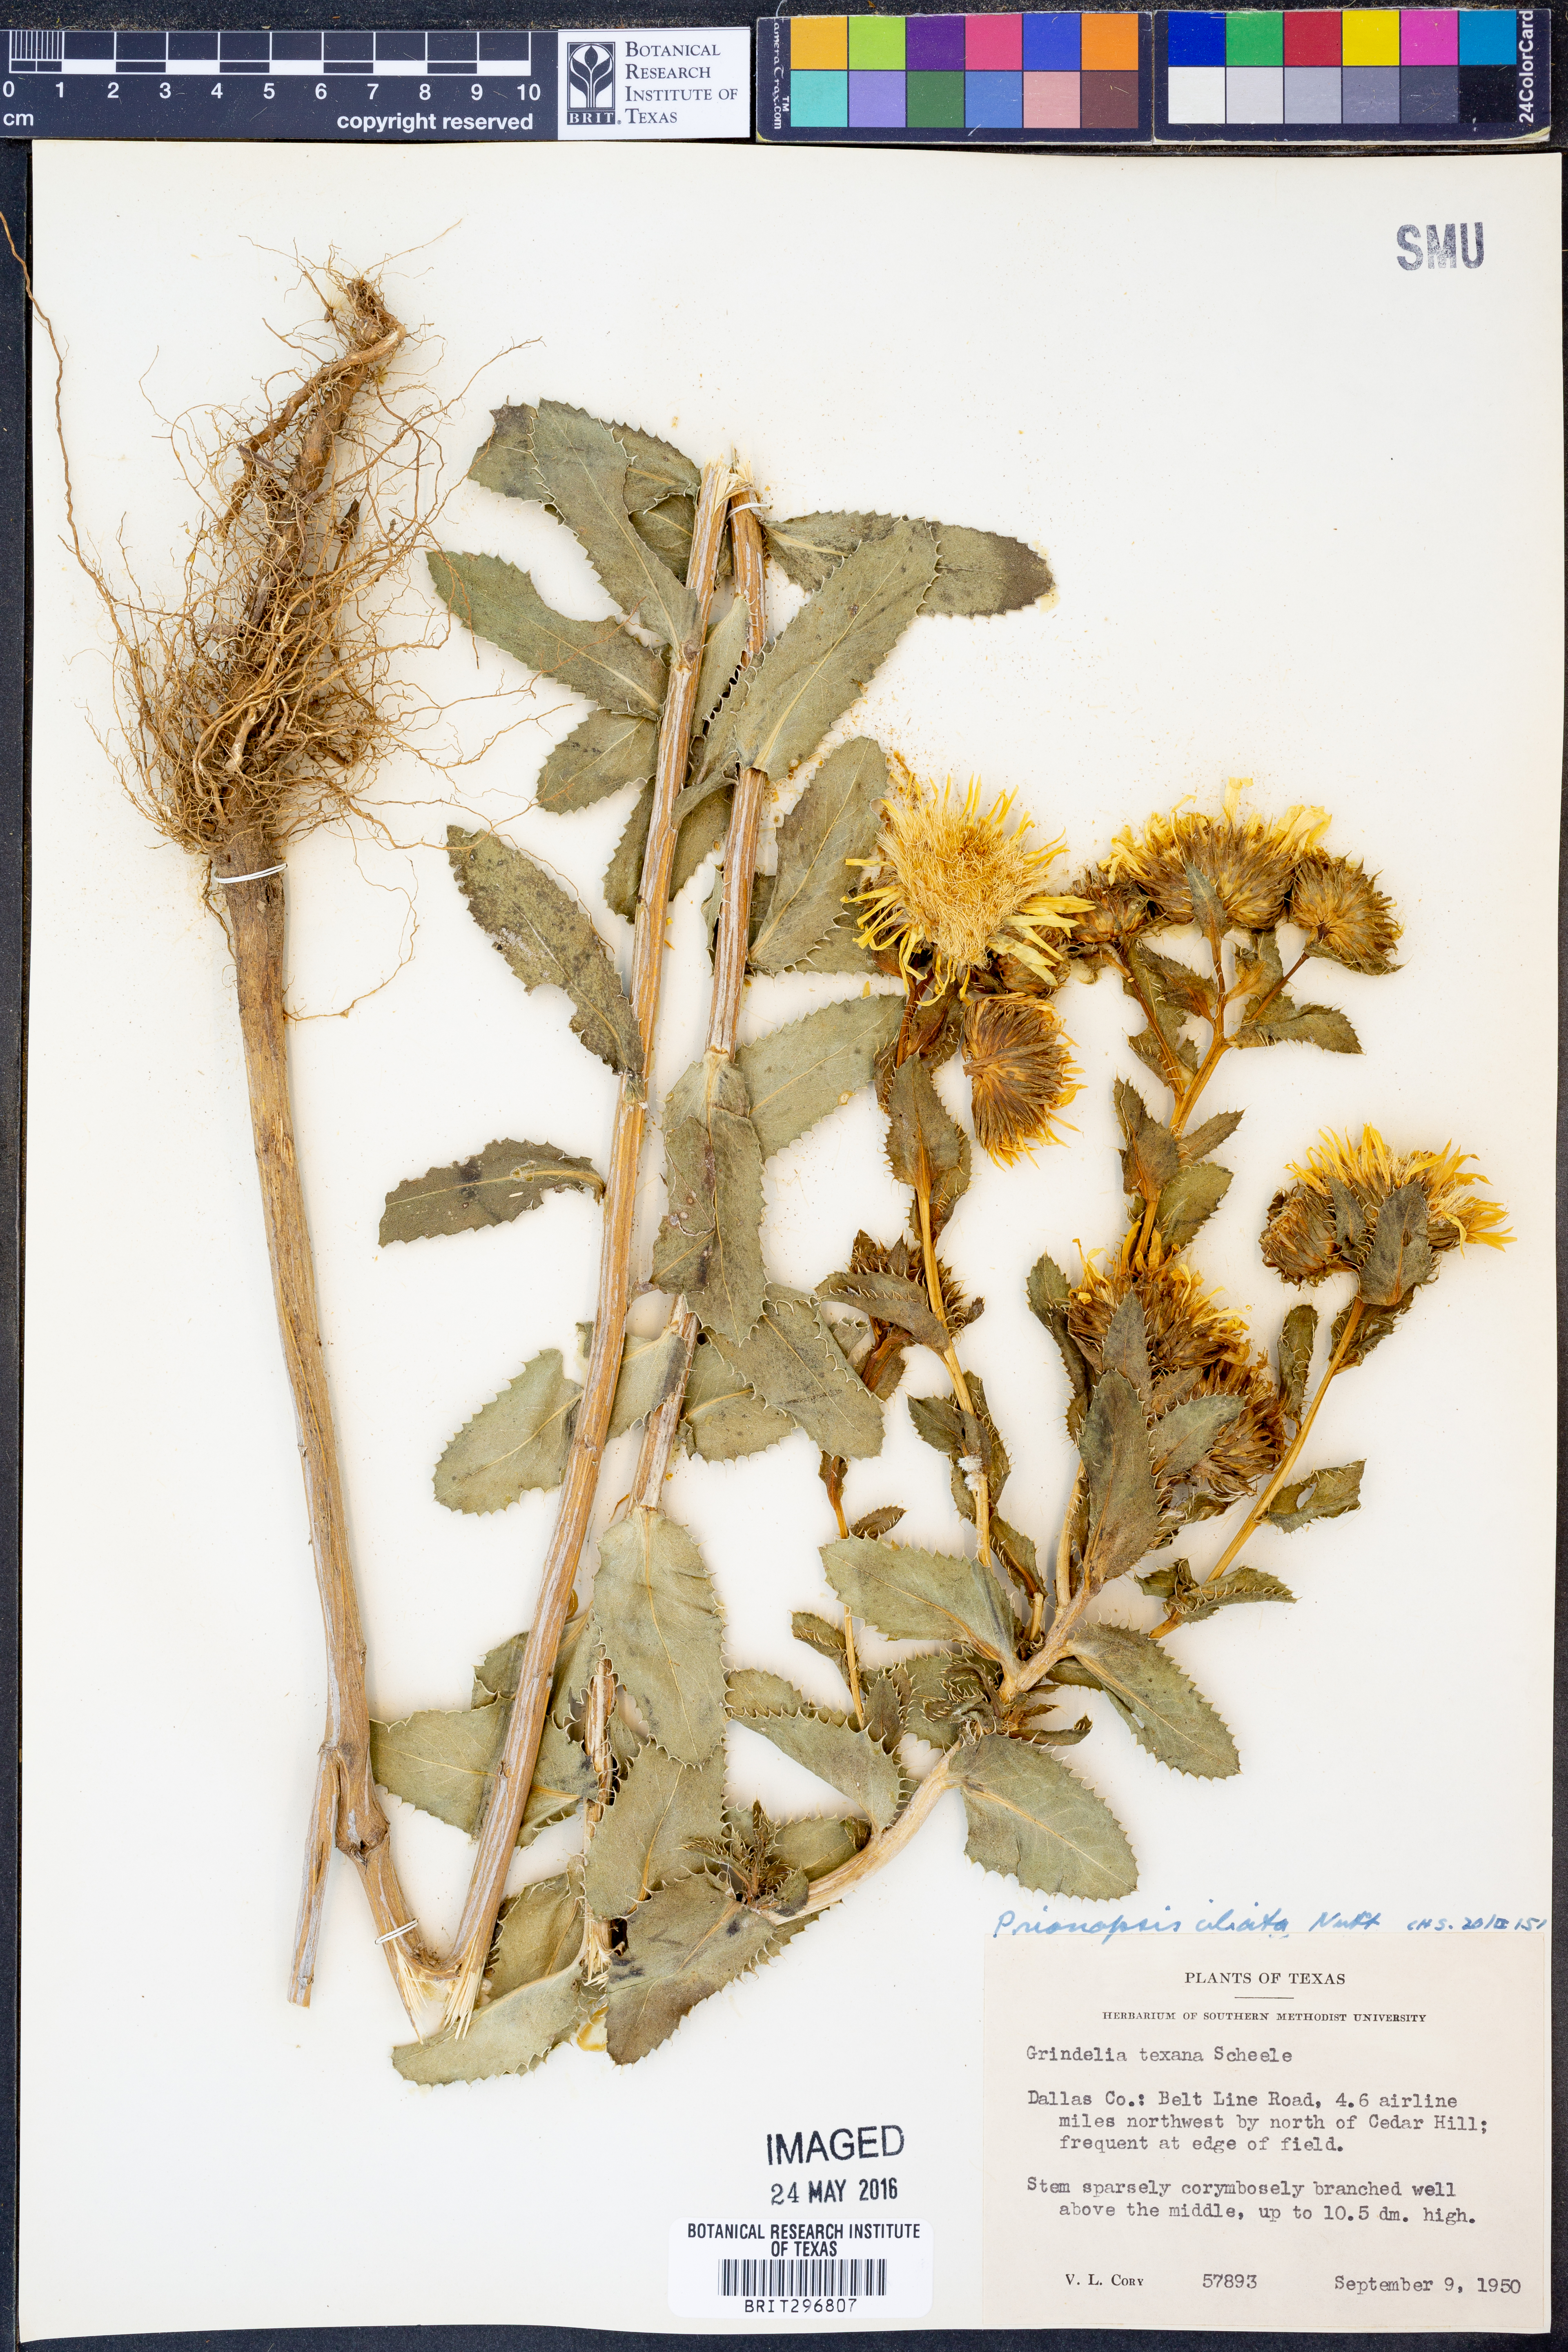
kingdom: Plantae
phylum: Tracheophyta
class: Magnoliopsida
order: Asterales
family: Asteraceae
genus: Grindelia
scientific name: Grindelia ciliata
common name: Goldenweed
